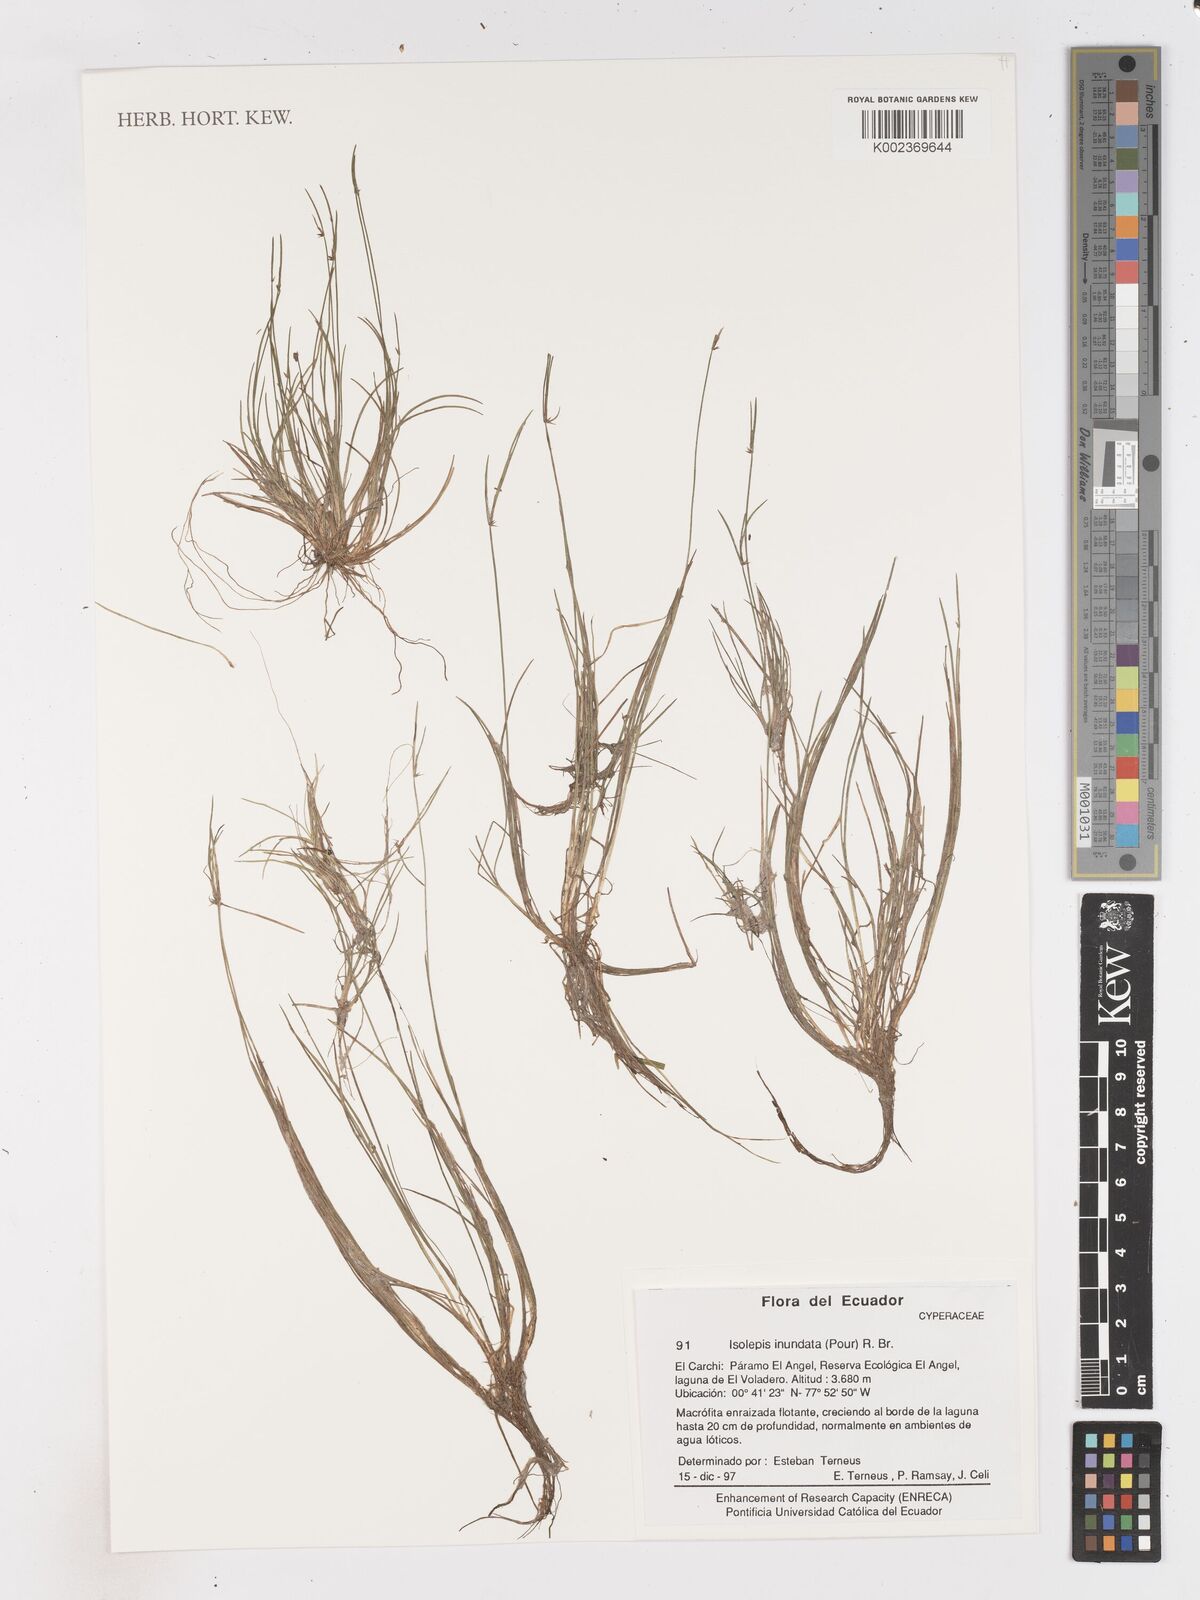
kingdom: Plantae
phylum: Tracheophyta
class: Liliopsida
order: Poales
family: Cyperaceae
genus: Isolepis
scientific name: Isolepis inundata
